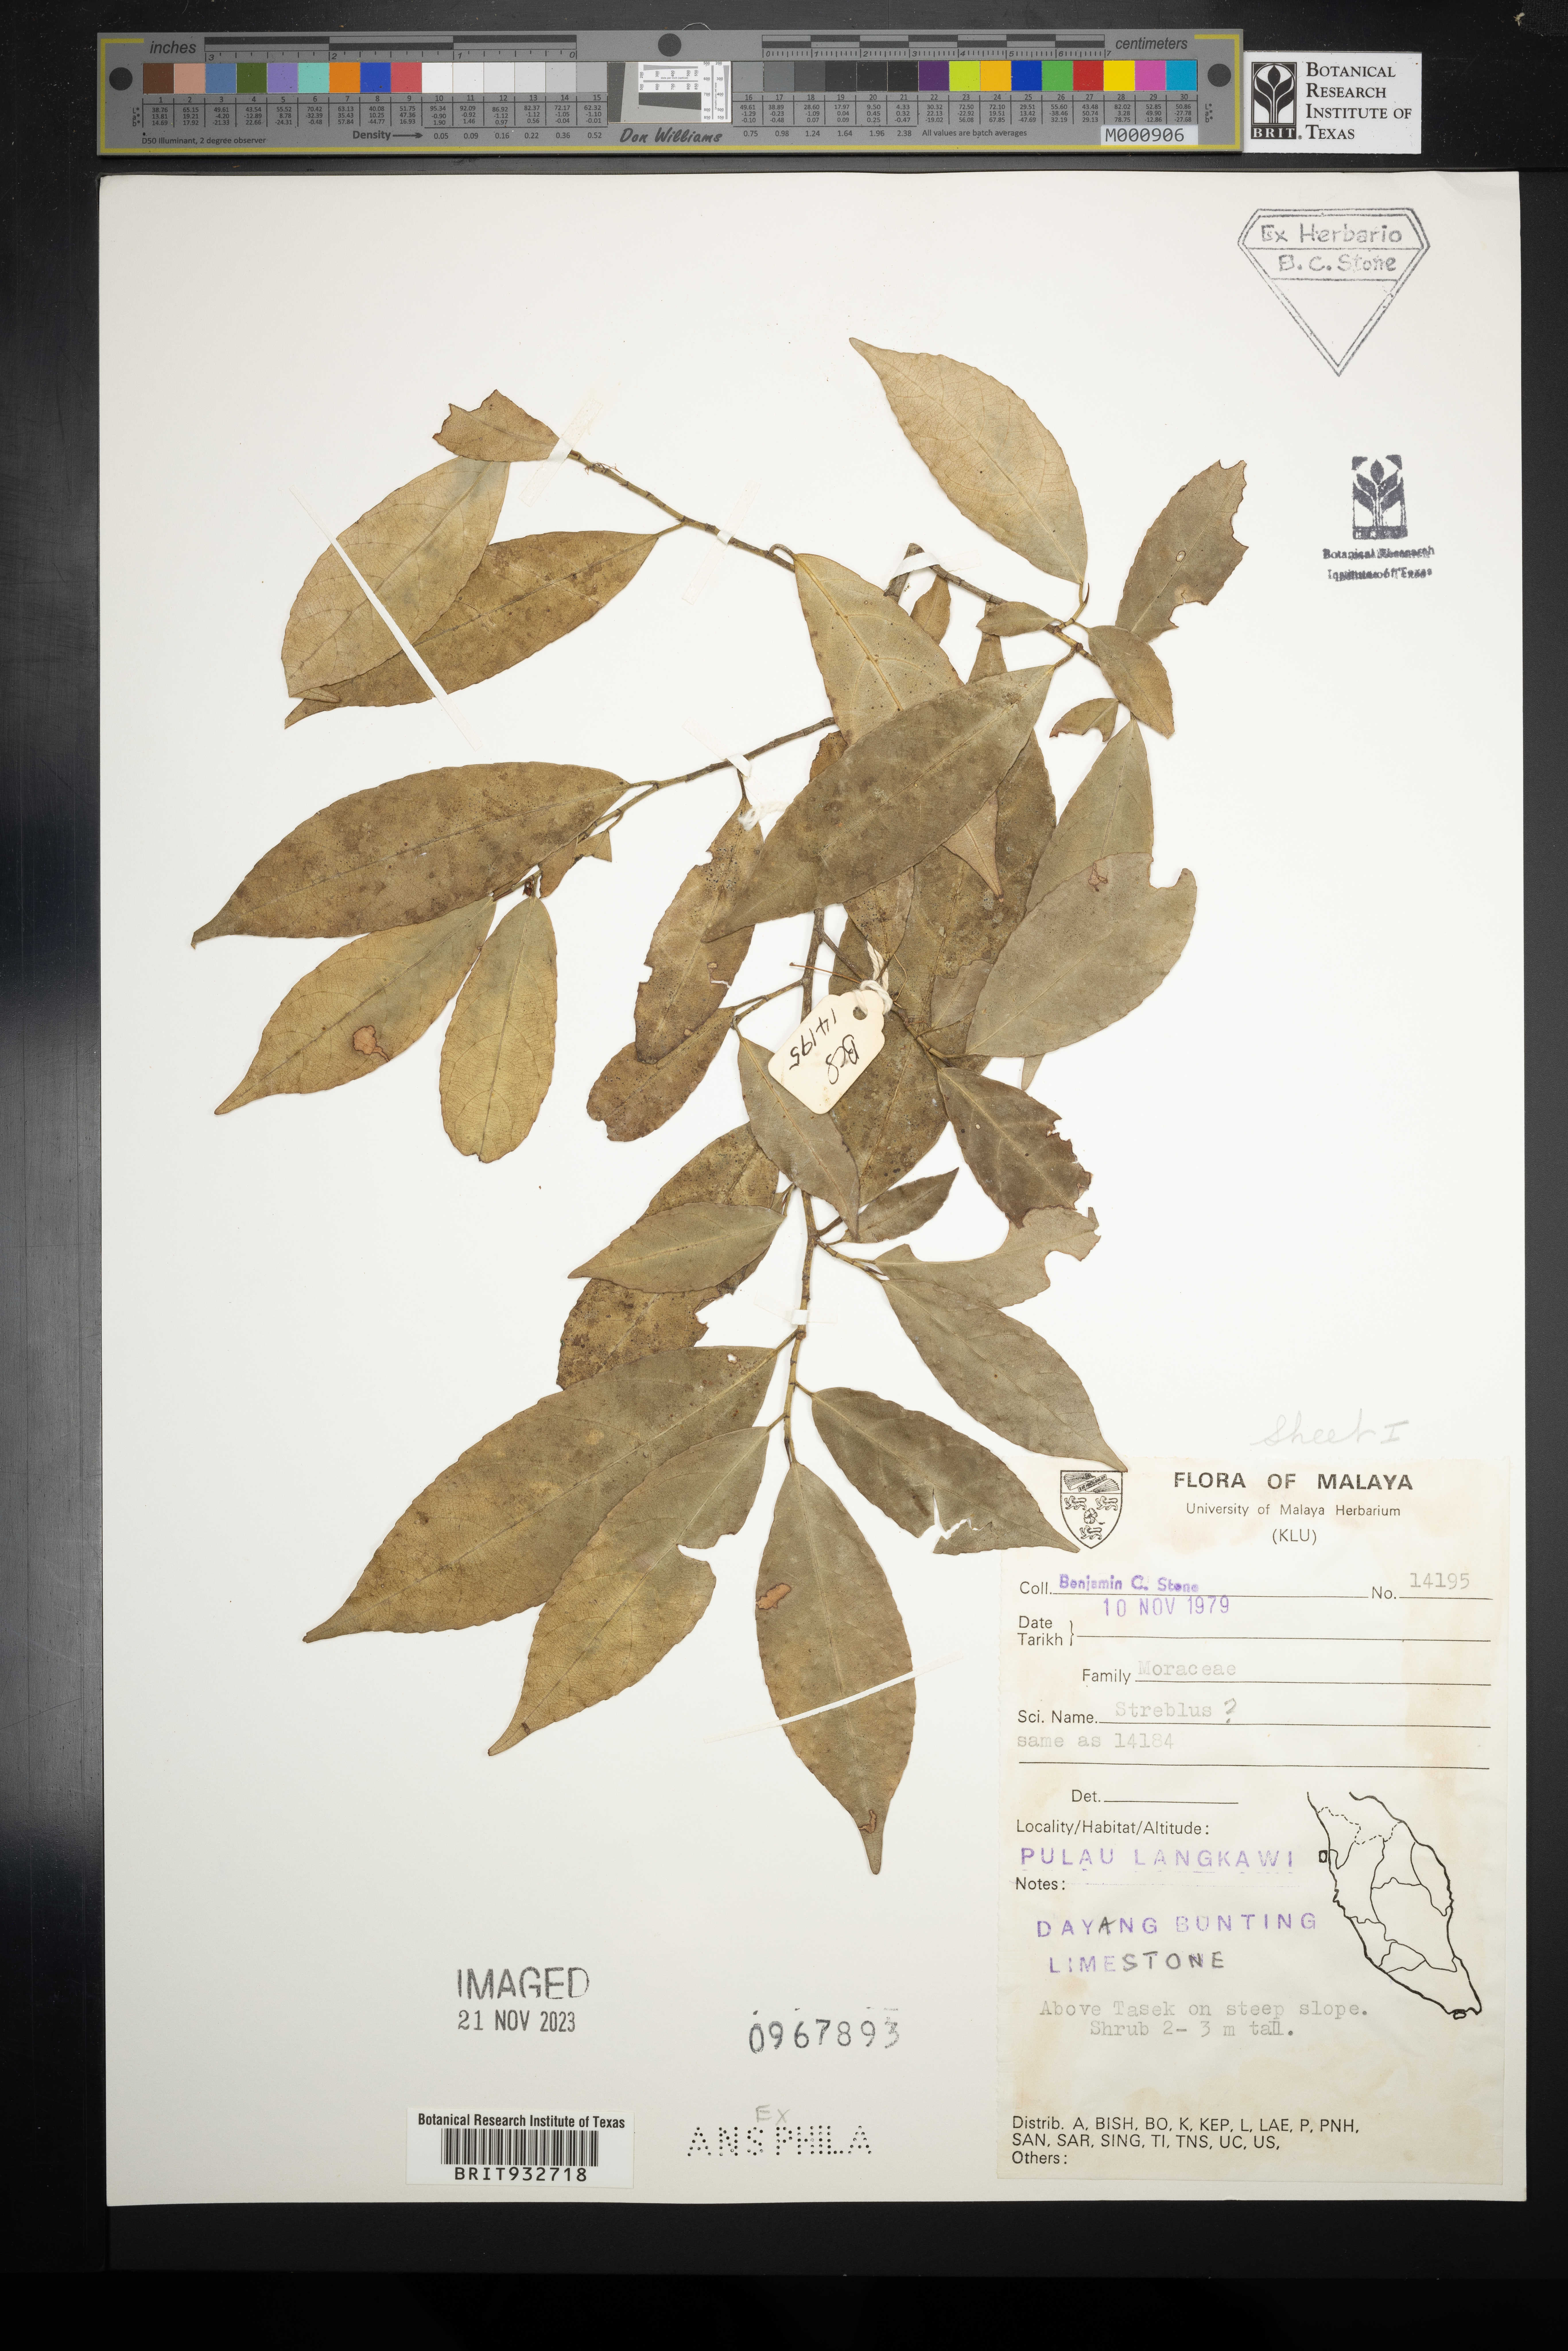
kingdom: Plantae
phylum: Tracheophyta
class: Magnoliopsida
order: Rosales
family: Moraceae
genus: Streblus
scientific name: Streblus
